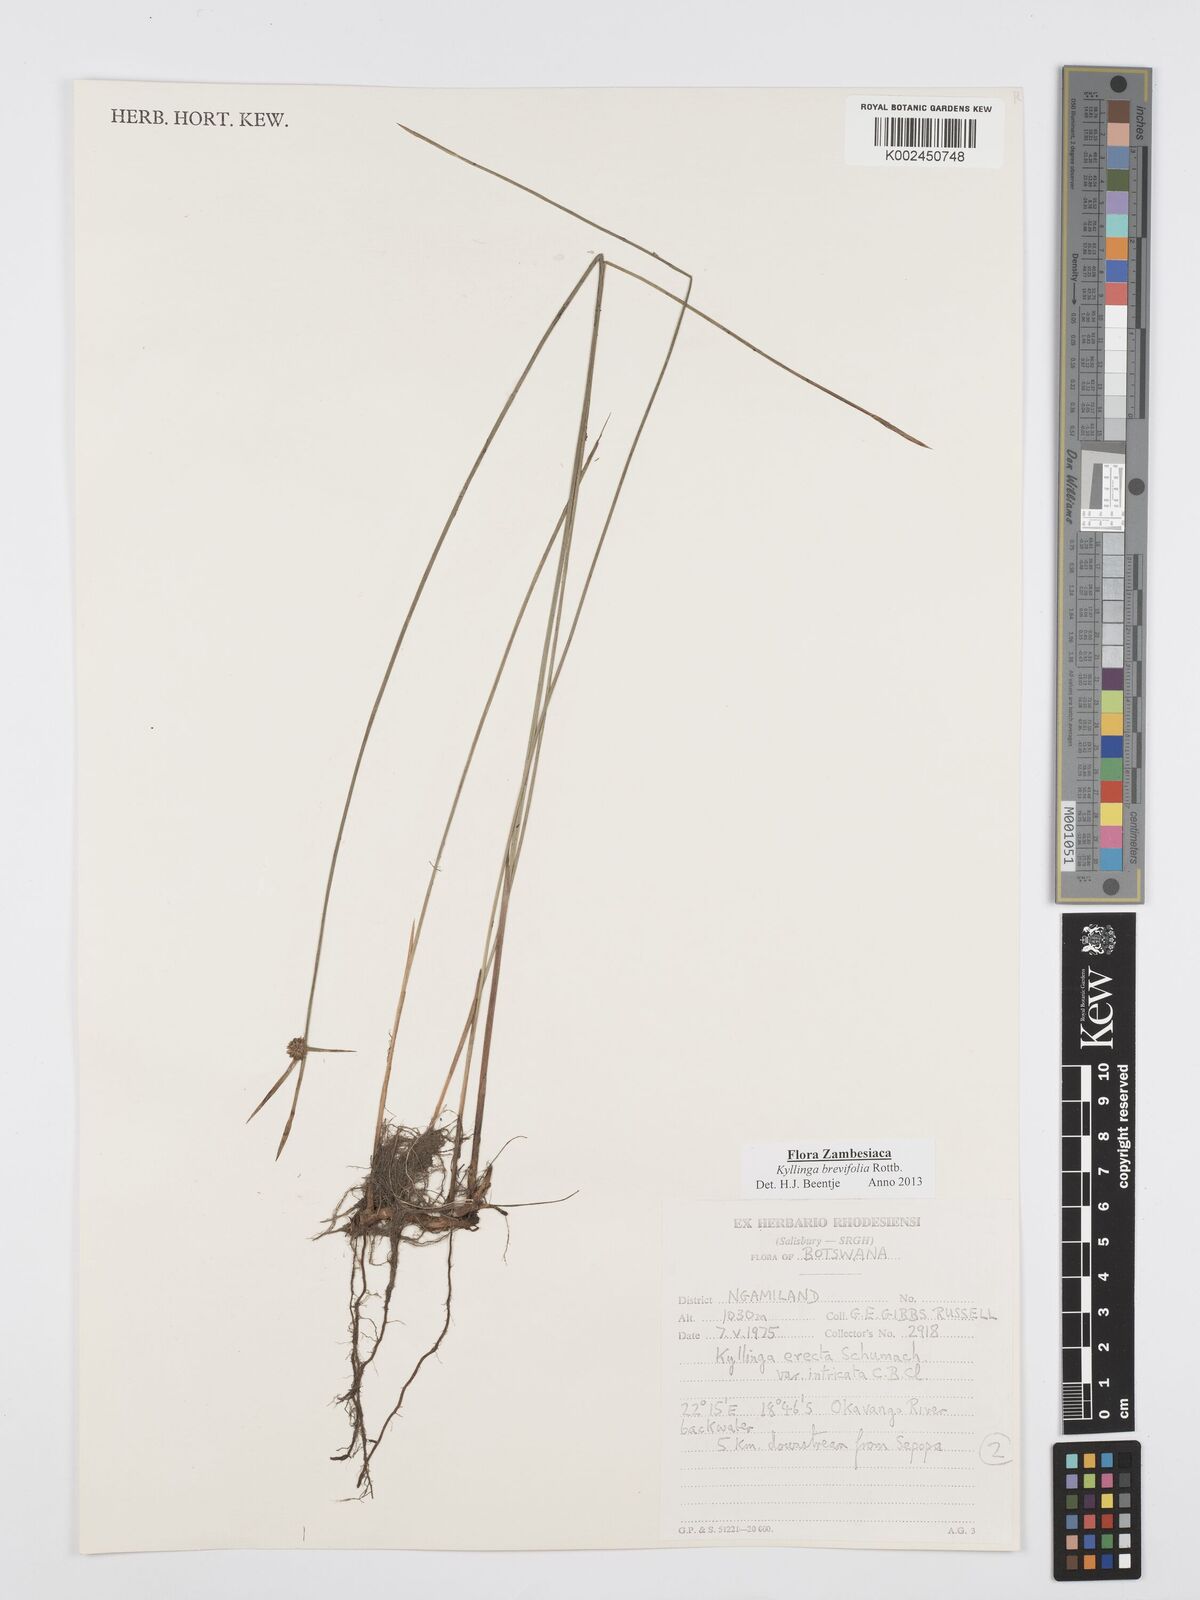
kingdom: Plantae
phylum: Tracheophyta
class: Liliopsida
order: Poales
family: Cyperaceae
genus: Cyperus
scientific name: Cyperus brevifolius
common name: Globe kyllinga
